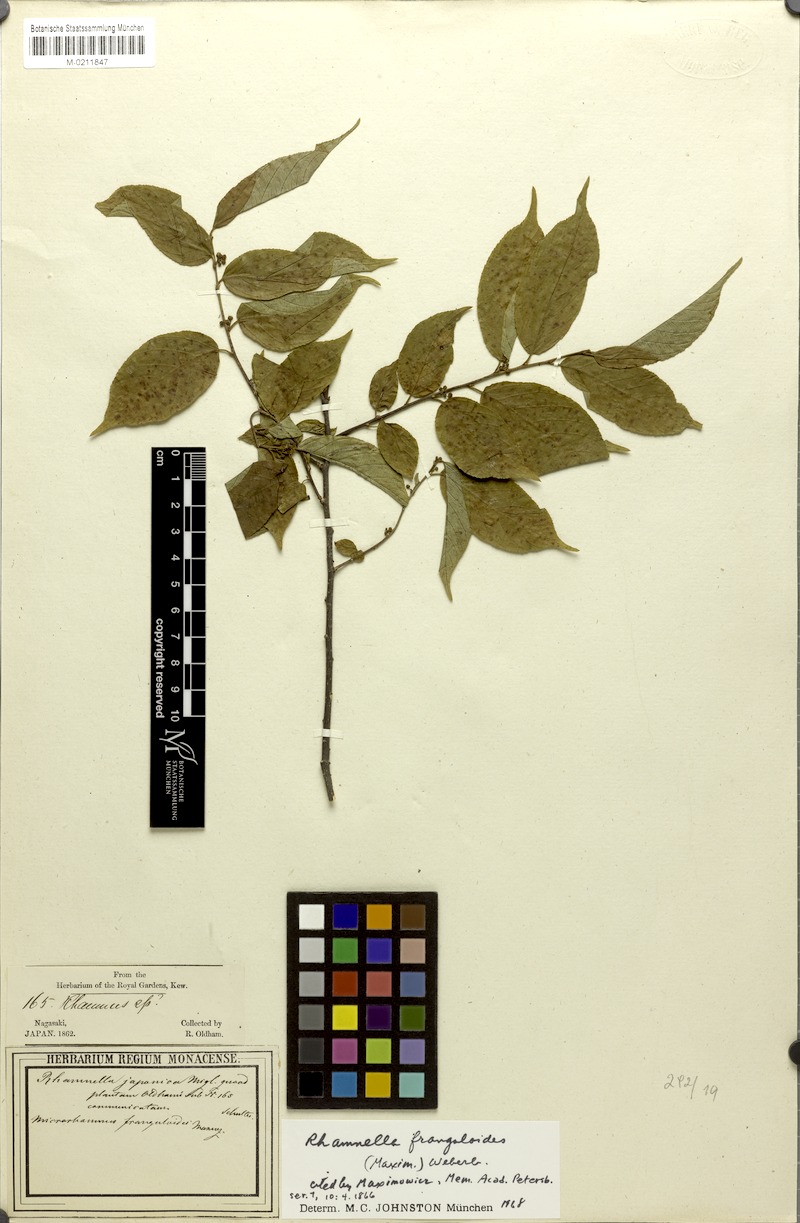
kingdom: Plantae
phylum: Tracheophyta
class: Magnoliopsida
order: Rosales
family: Rhamnaceae
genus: Rhamnella
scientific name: Rhamnella franguloides
